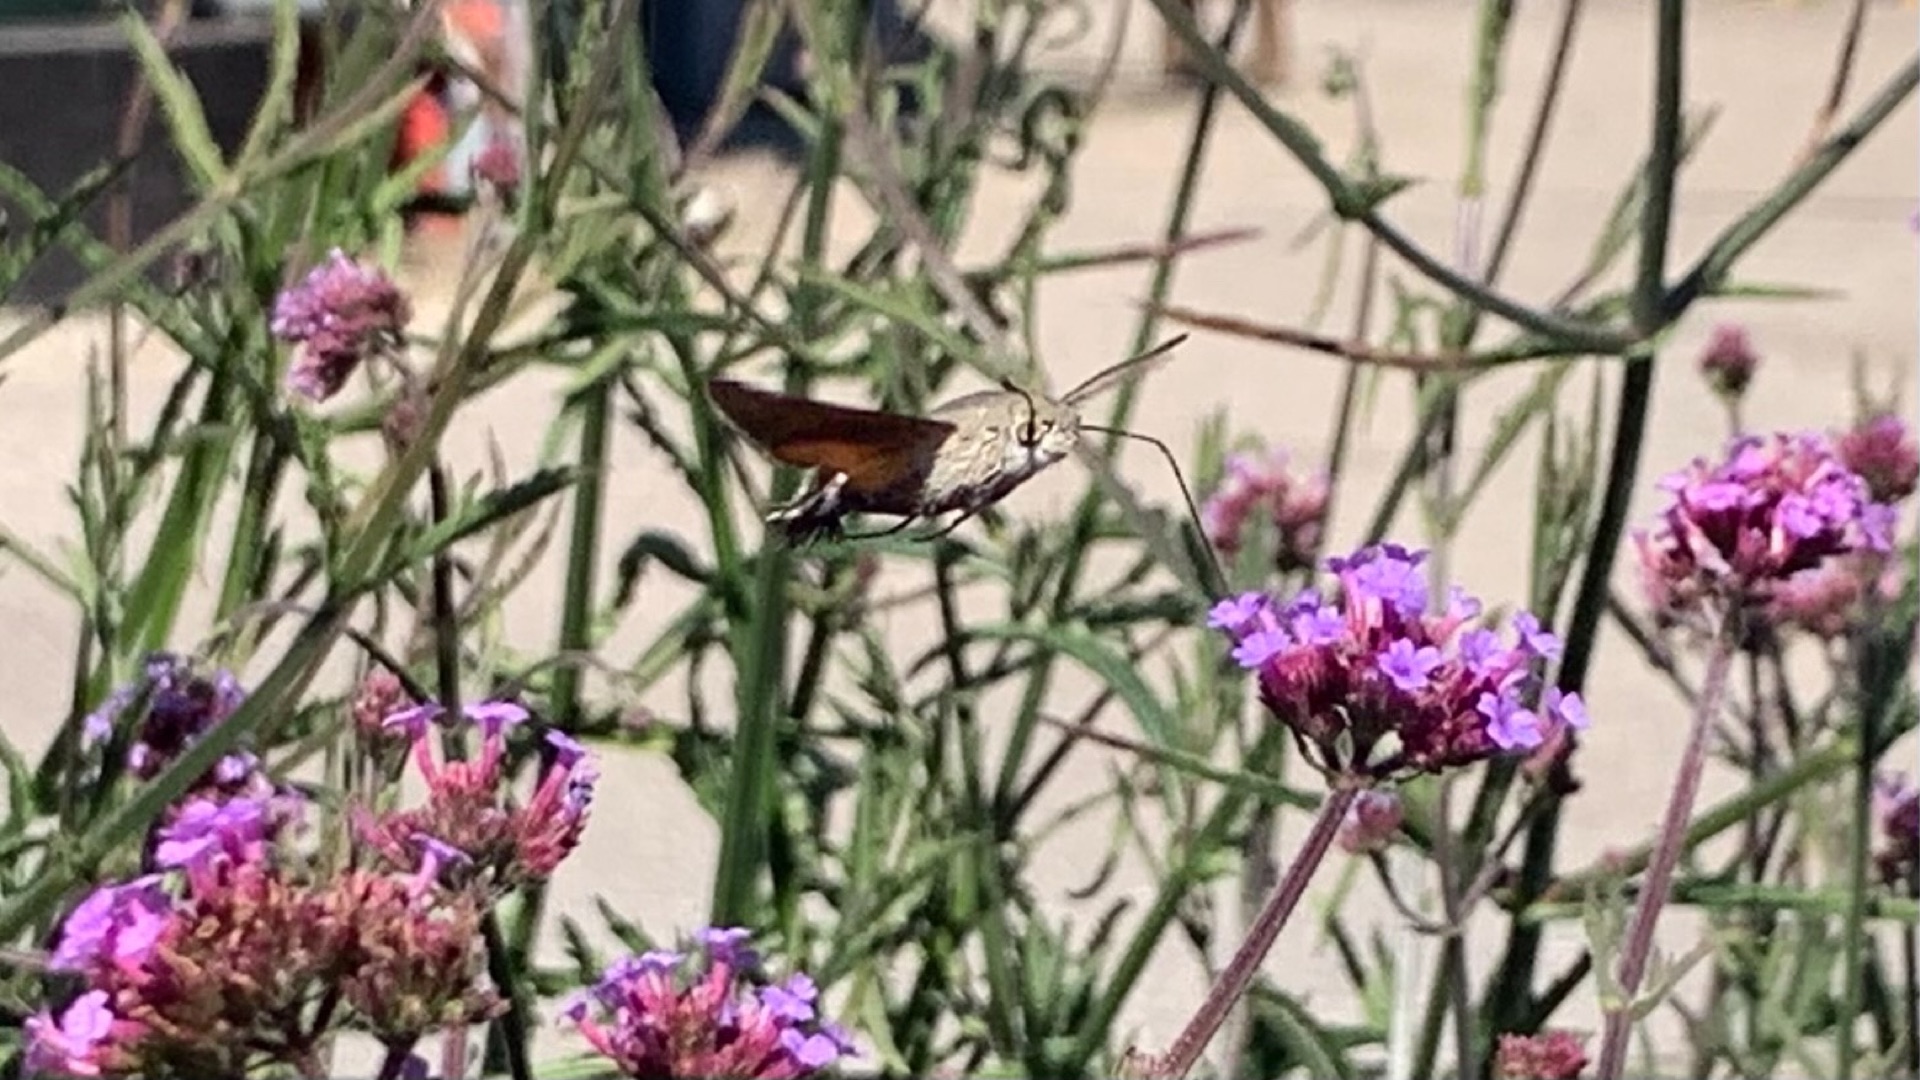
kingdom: Animalia
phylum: Arthropoda
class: Insecta
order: Lepidoptera
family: Sphingidae
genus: Macroglossum
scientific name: Macroglossum stellatarum
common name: Duehale
